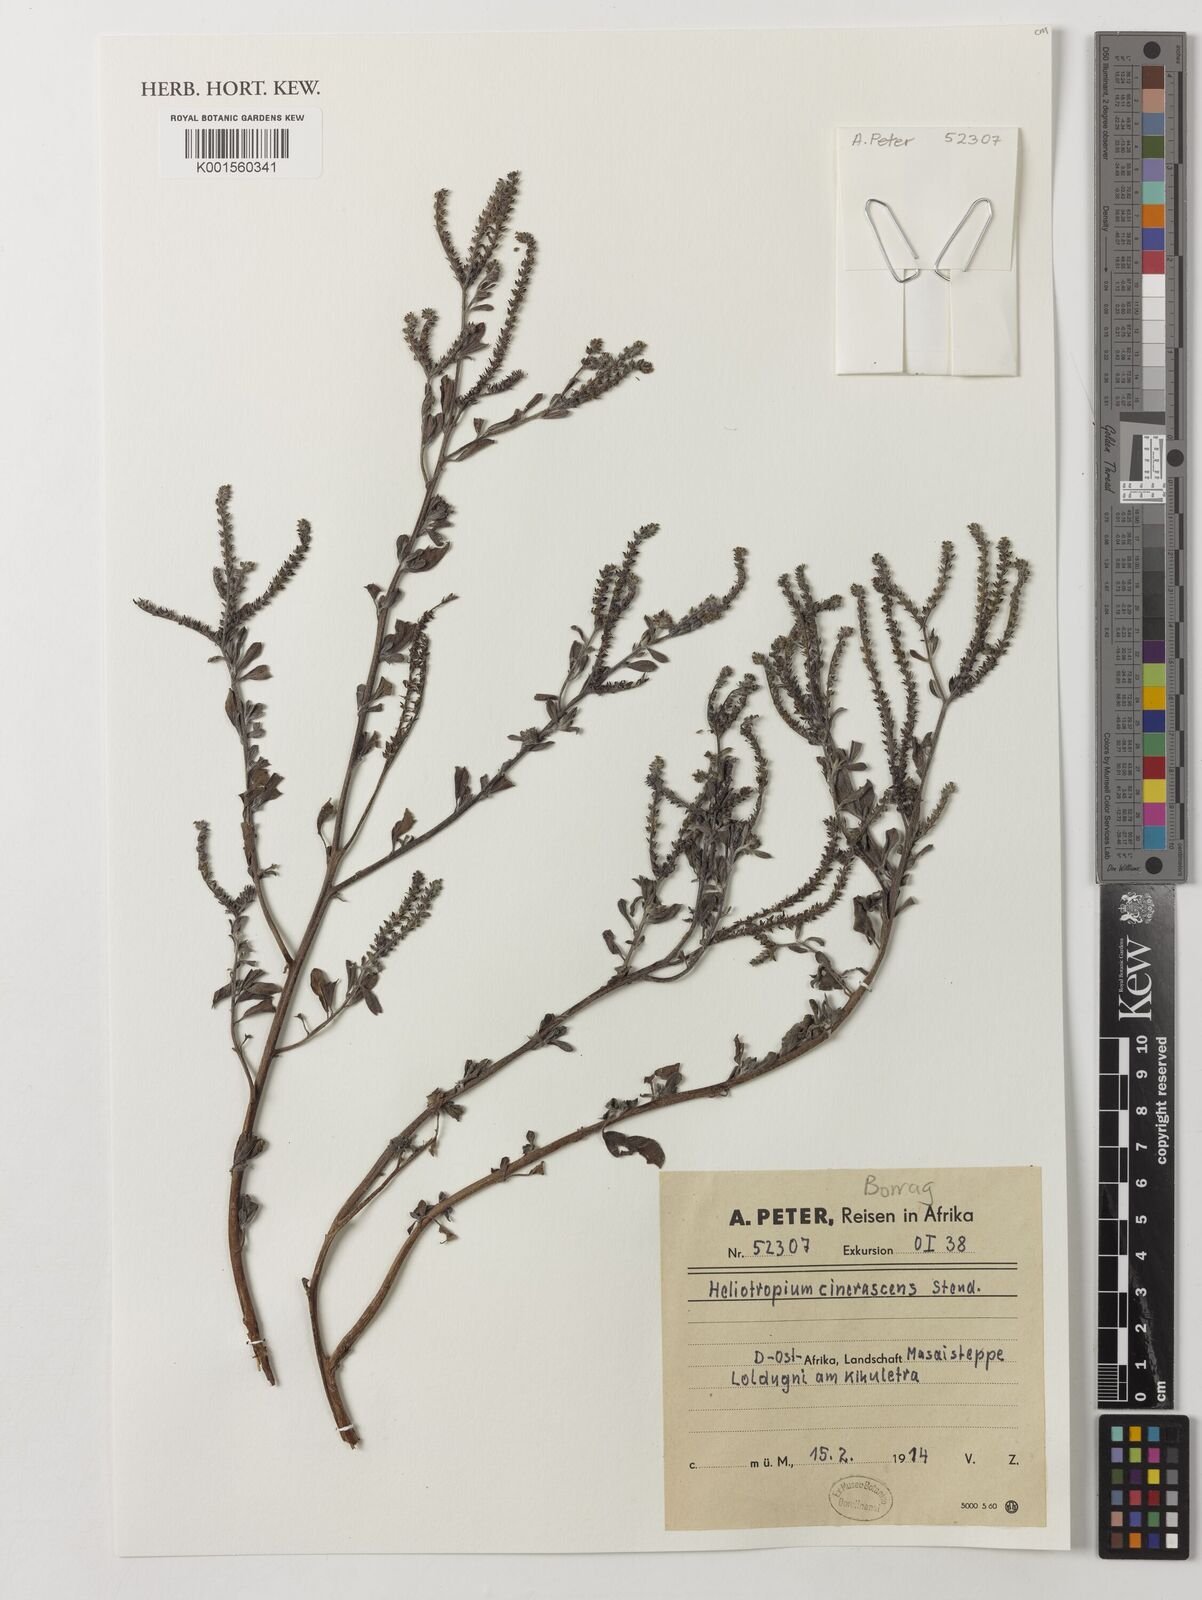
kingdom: Plantae
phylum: Tracheophyta
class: Magnoliopsida
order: Boraginales
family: Heliotropiaceae
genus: Heliotropium
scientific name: Heliotropium aegyptiacum
